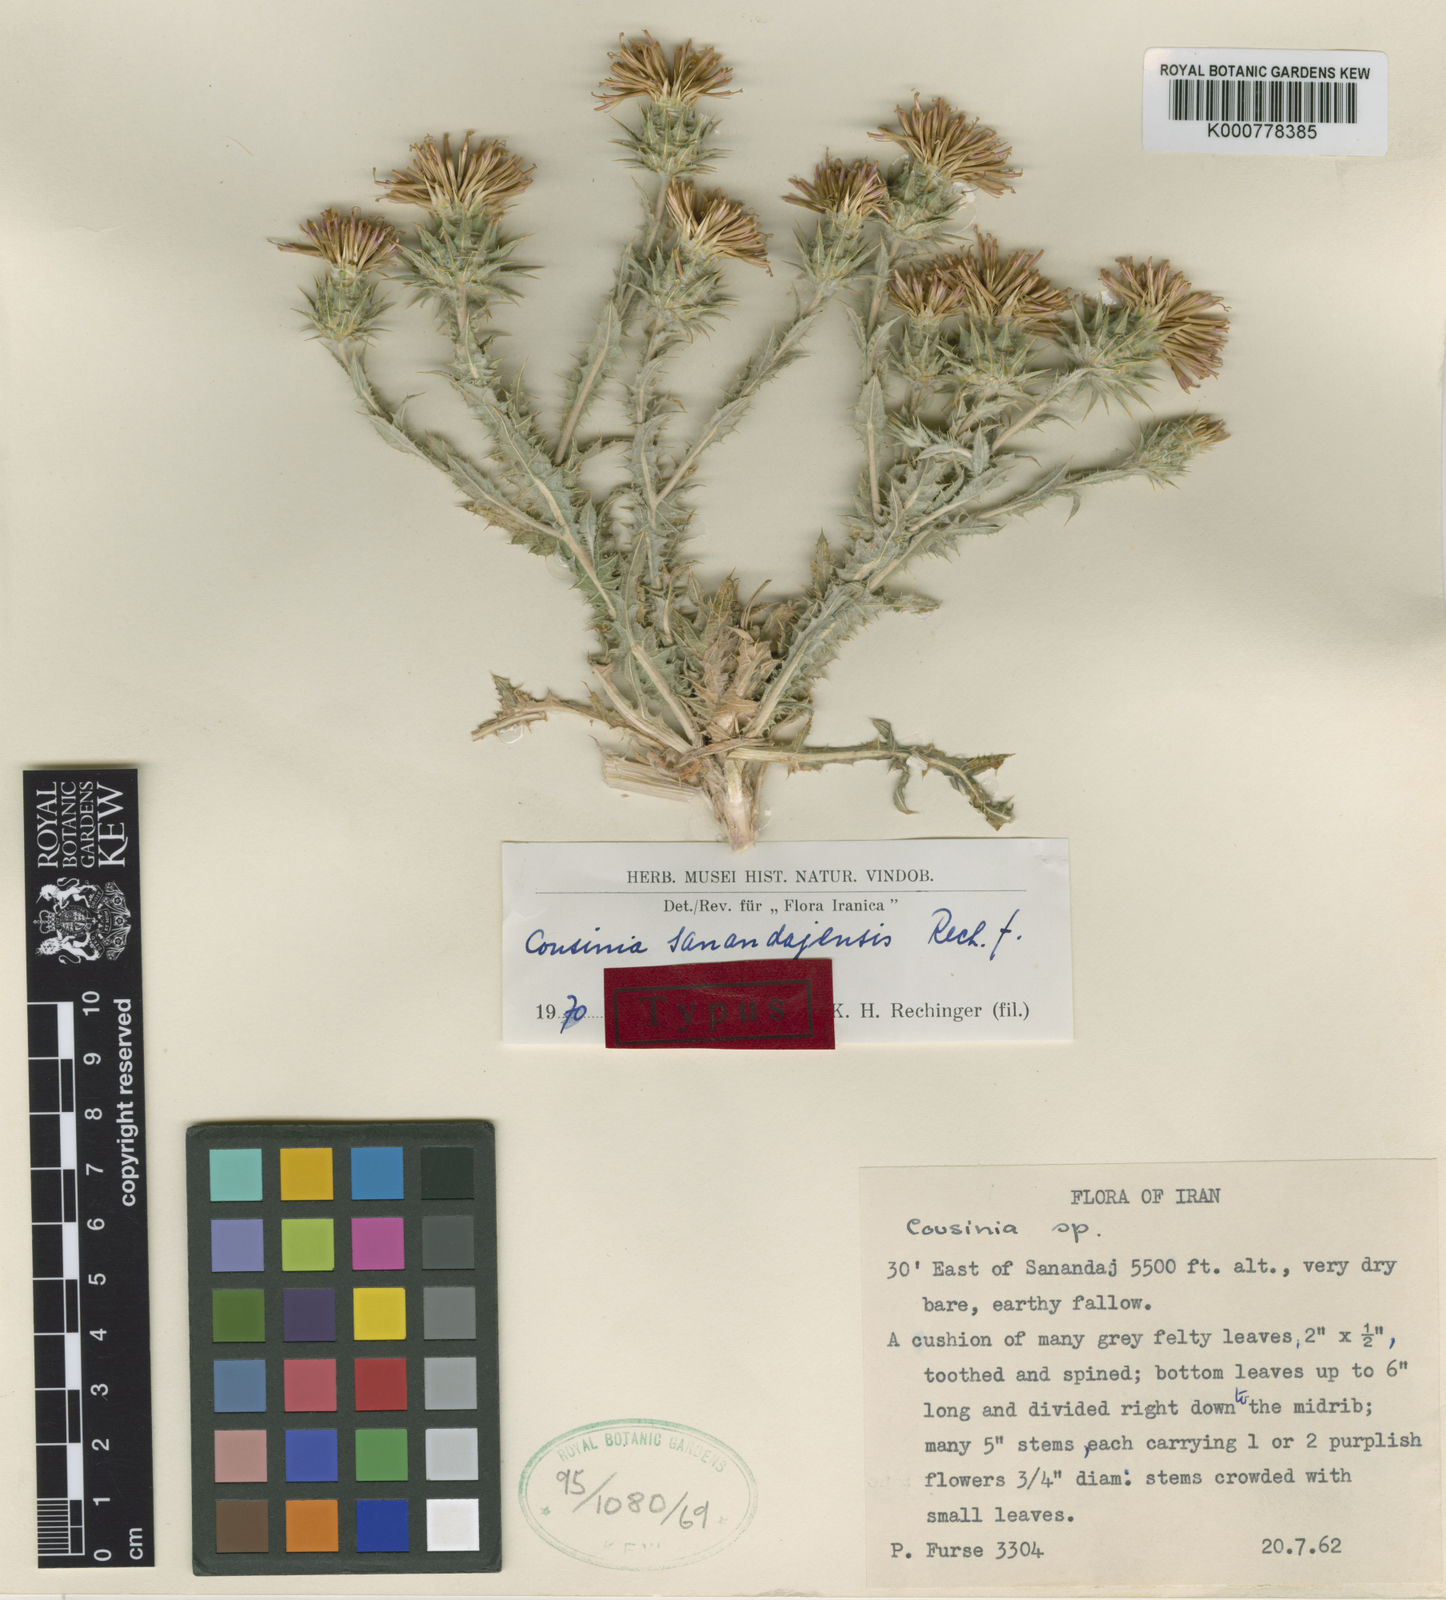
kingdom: Plantae
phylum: Tracheophyta
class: Magnoliopsida
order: Asterales
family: Asteraceae
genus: Cousinia
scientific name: Cousinia sanandajensis
